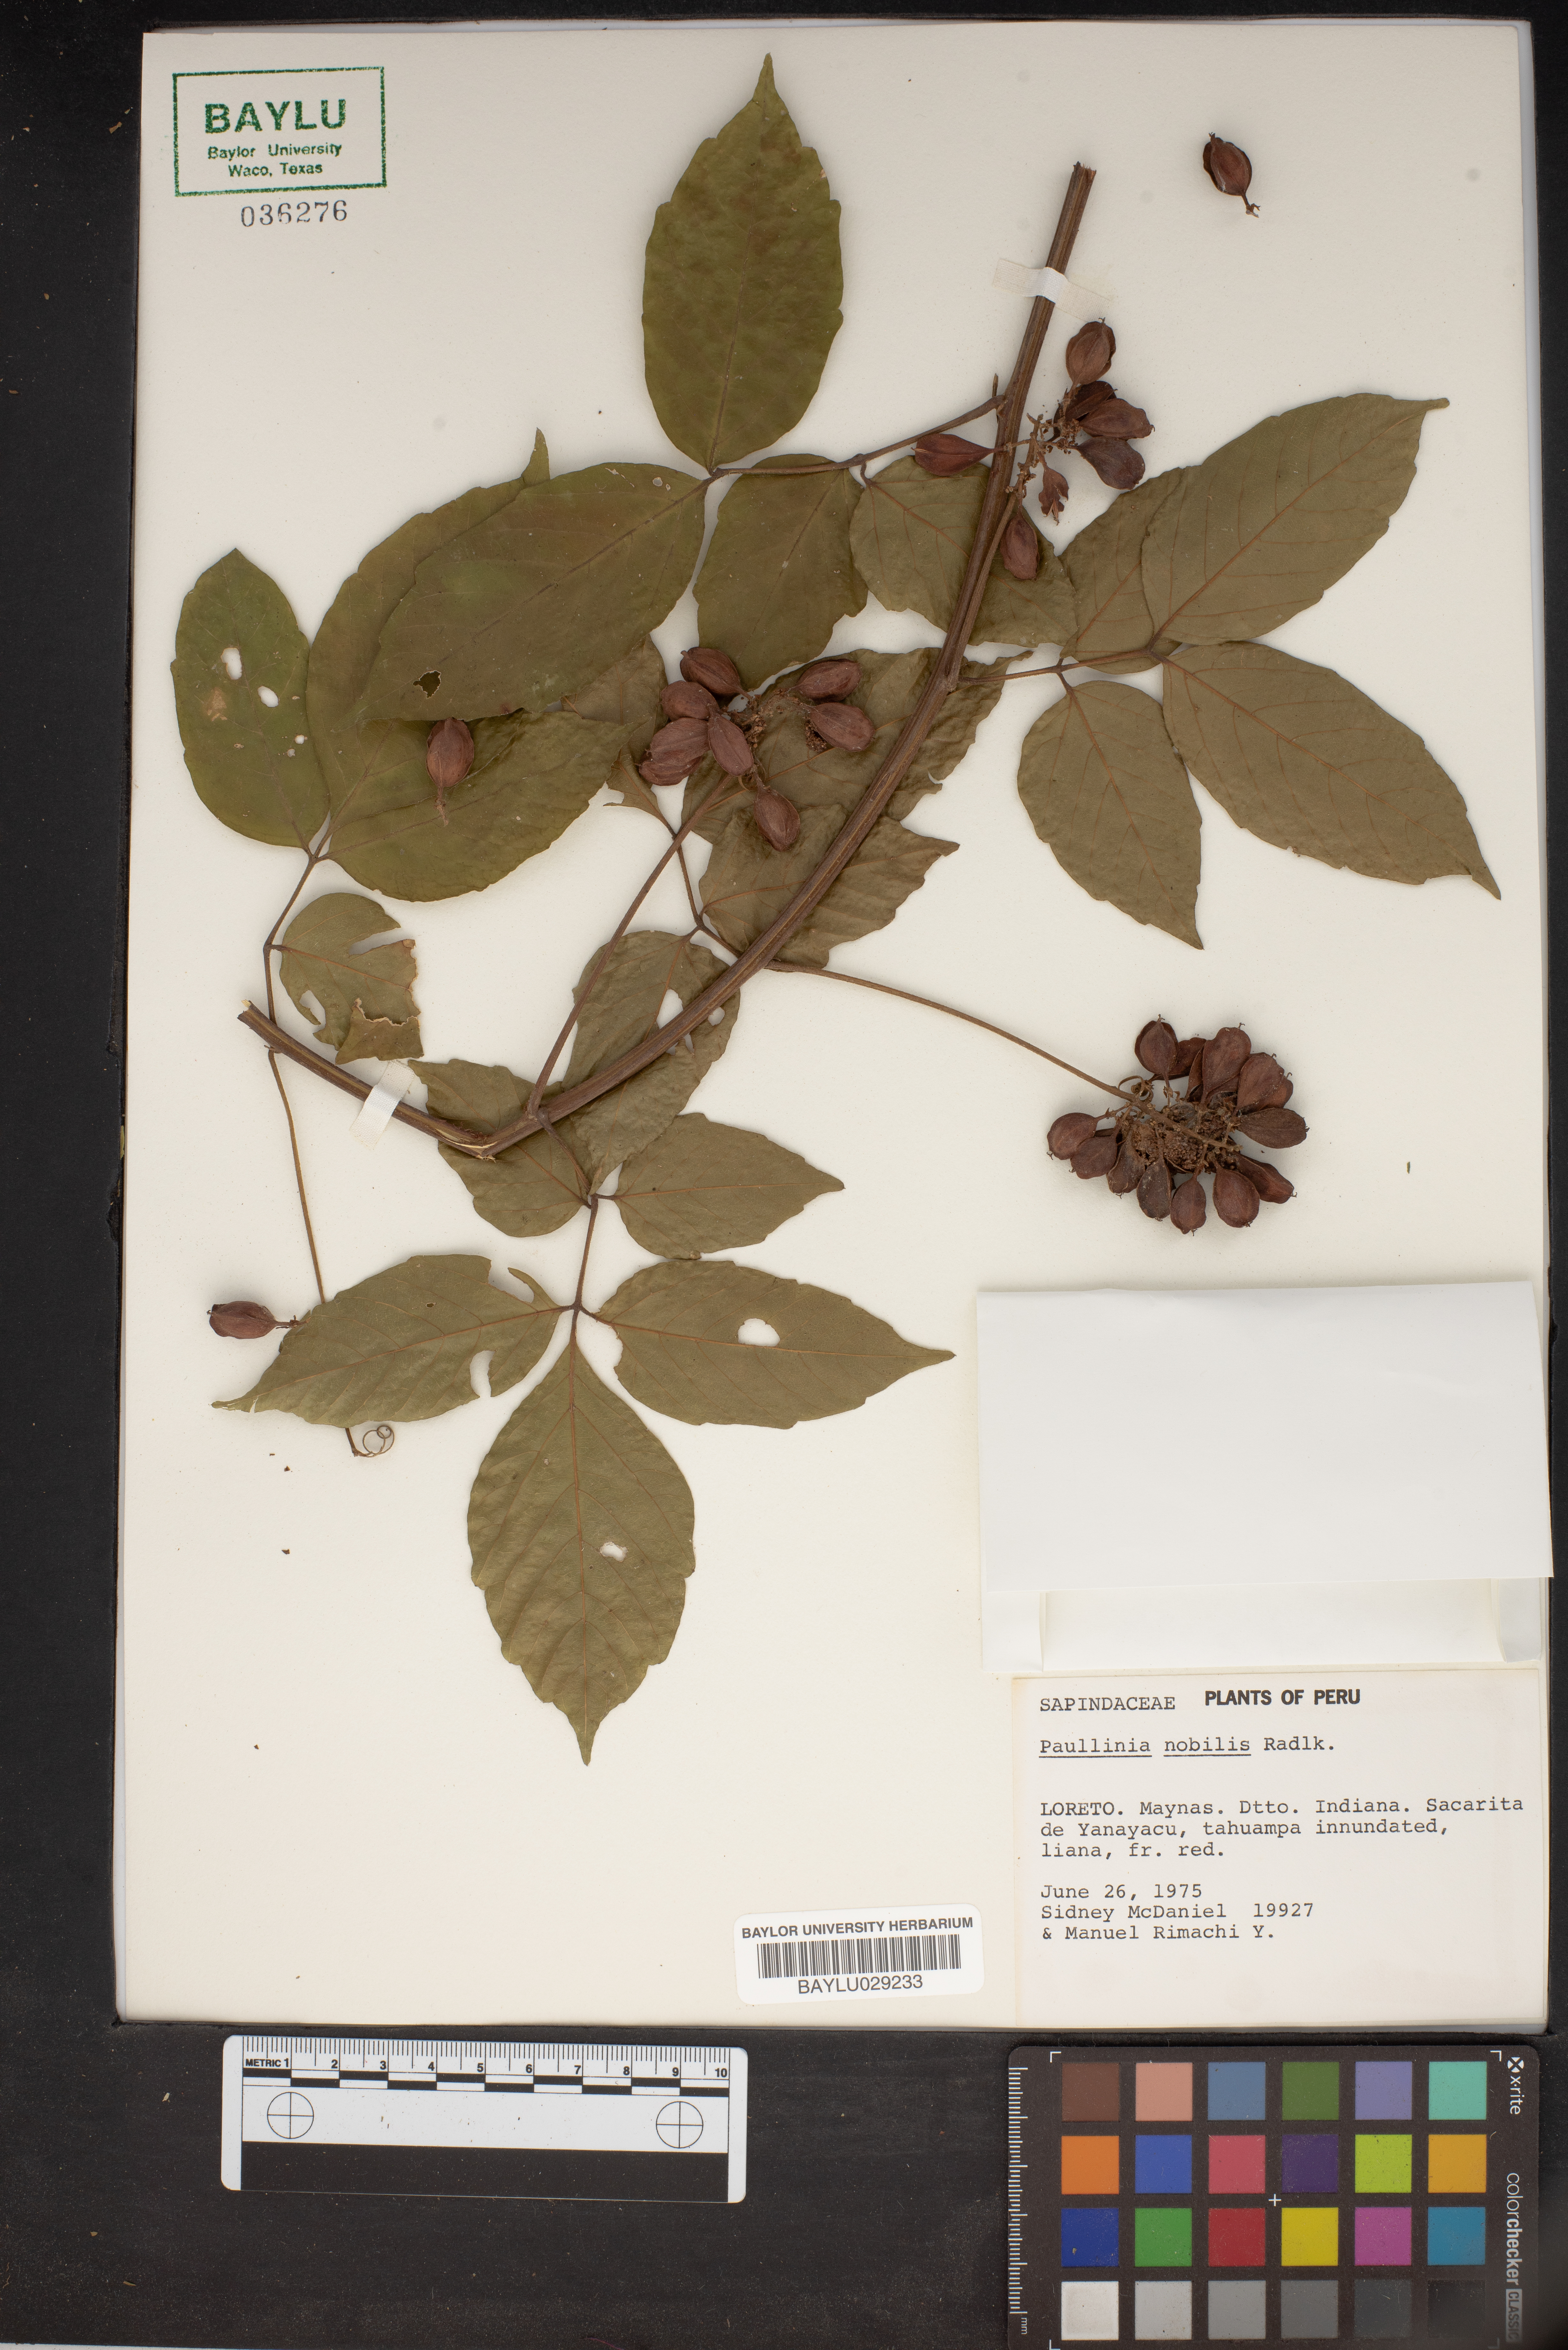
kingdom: Plantae
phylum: Tracheophyta
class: Magnoliopsida
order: Sapindales
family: Sapindaceae
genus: Paullinia
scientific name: Paullinia nobilis
